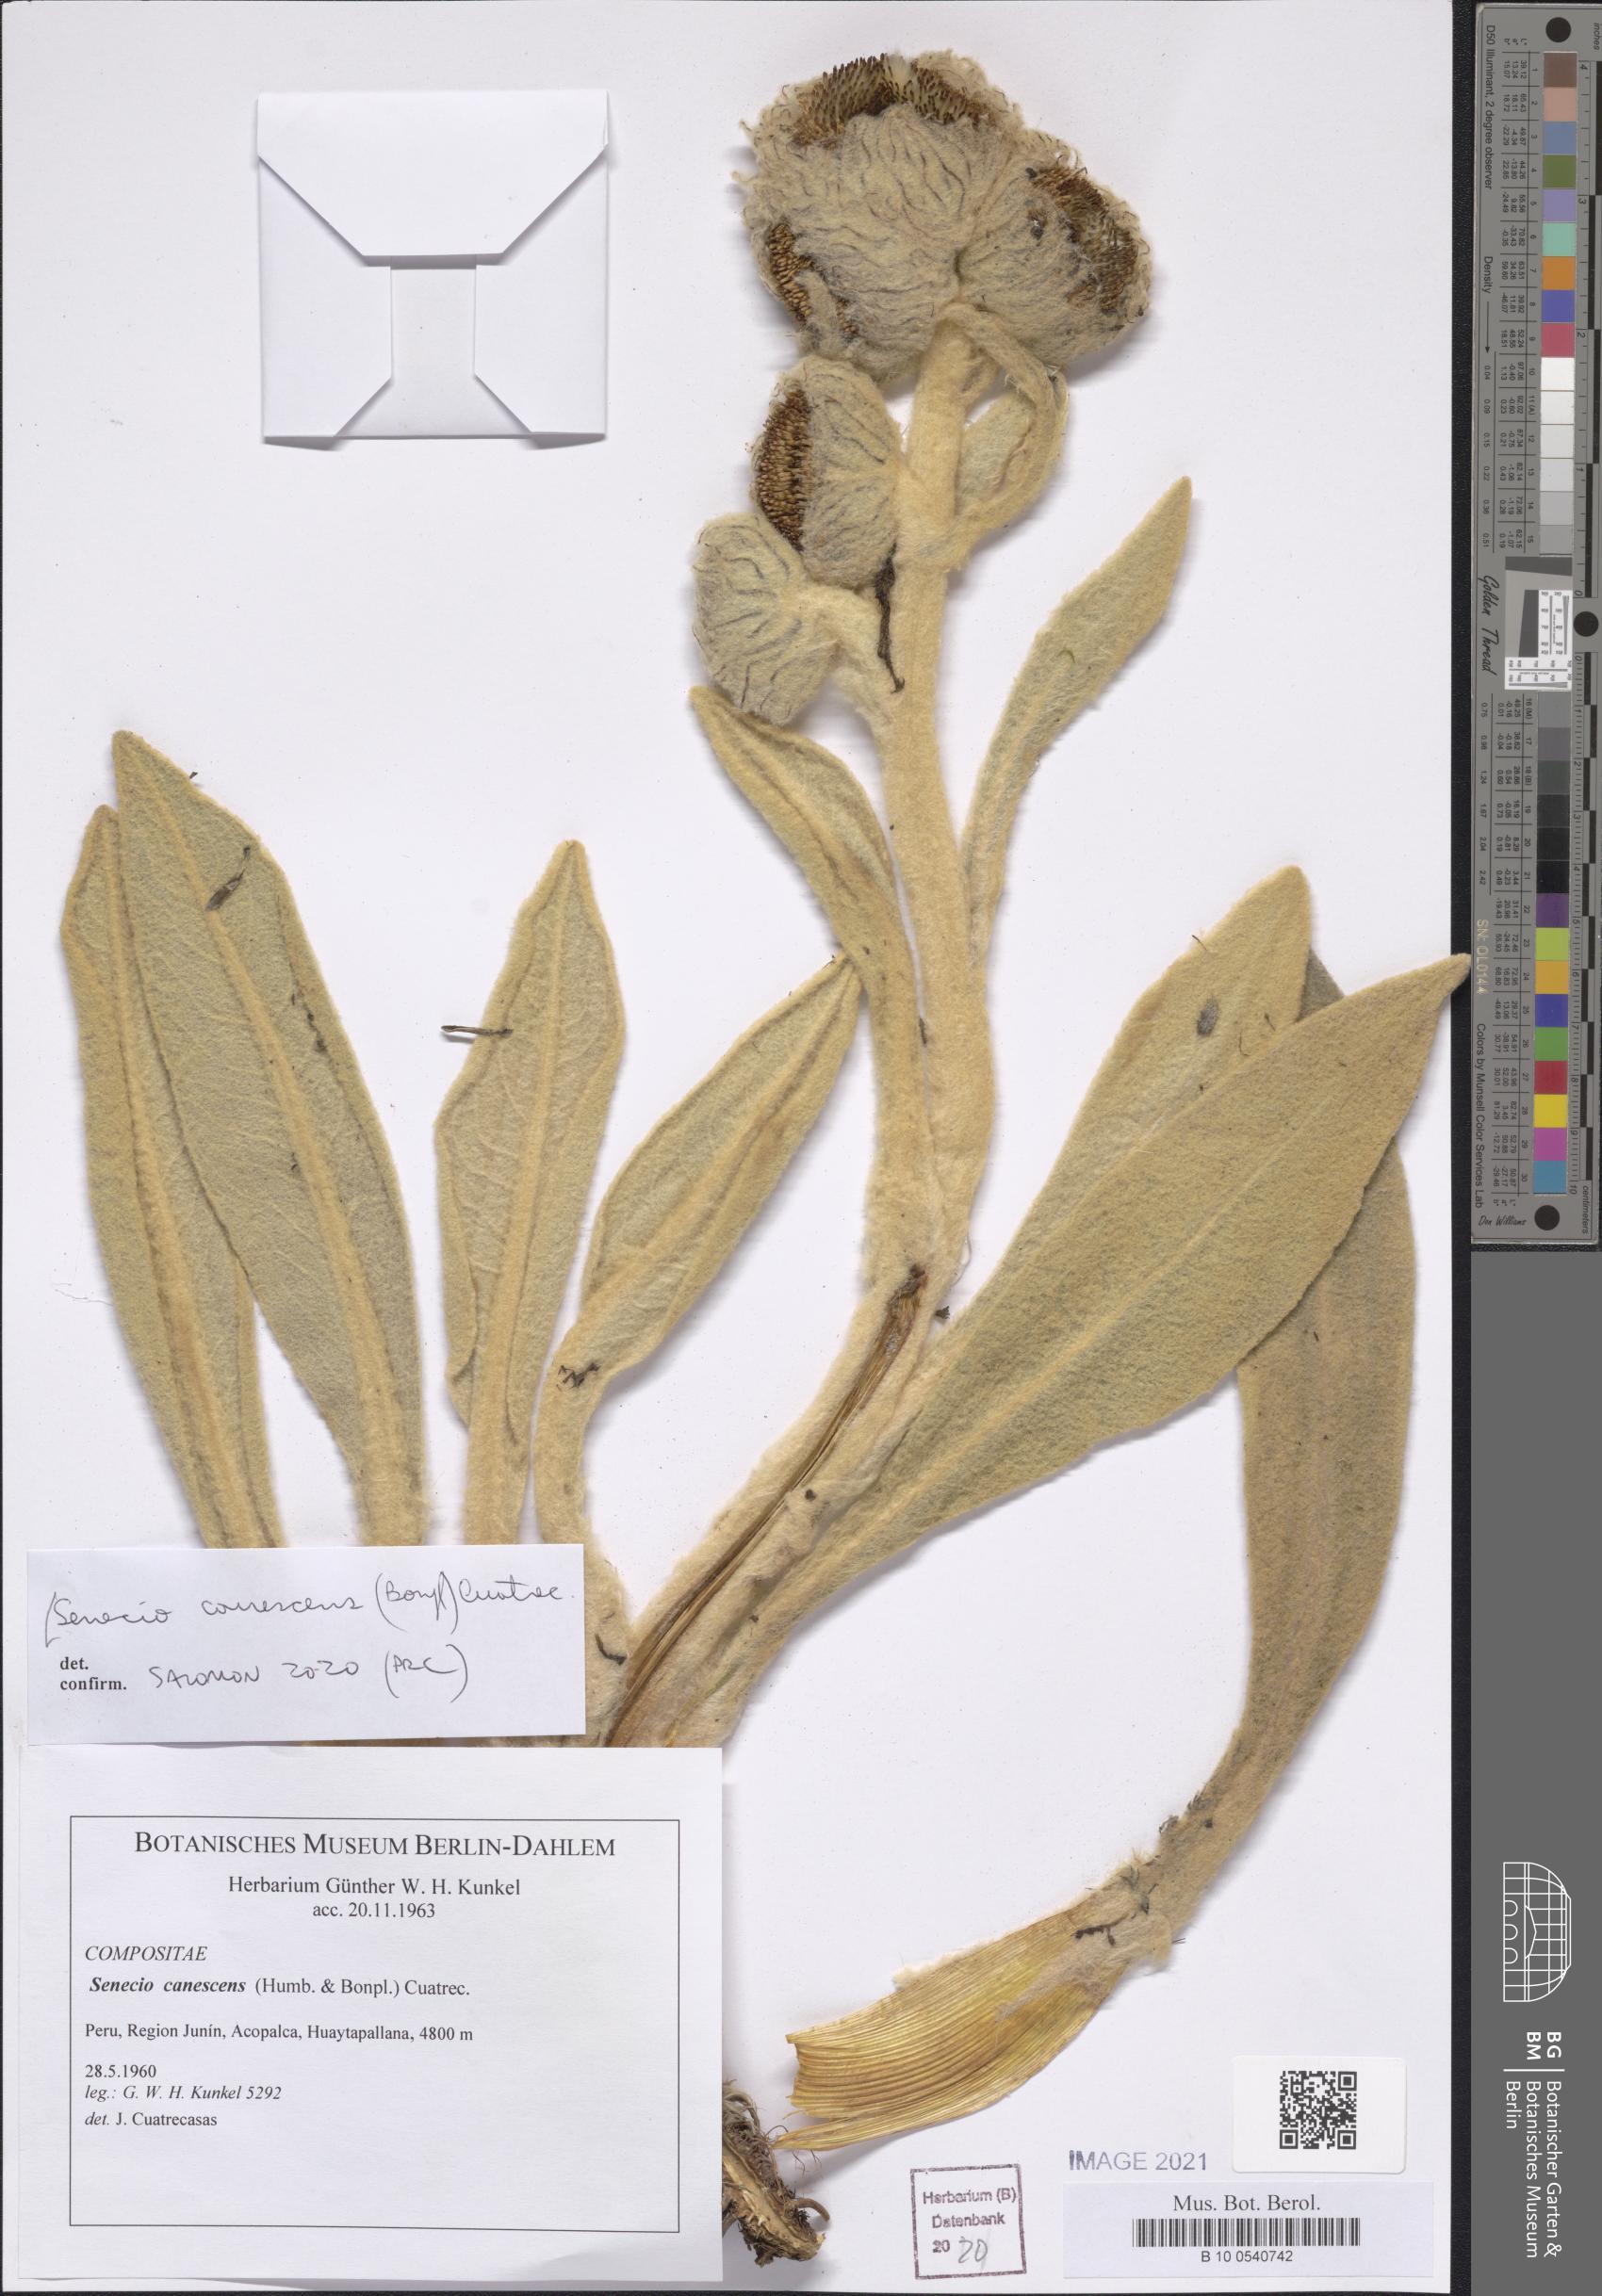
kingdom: Plantae
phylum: Tracheophyta
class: Magnoliopsida
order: Asterales
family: Asteraceae
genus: Culcitium
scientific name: Culcitium canescens
